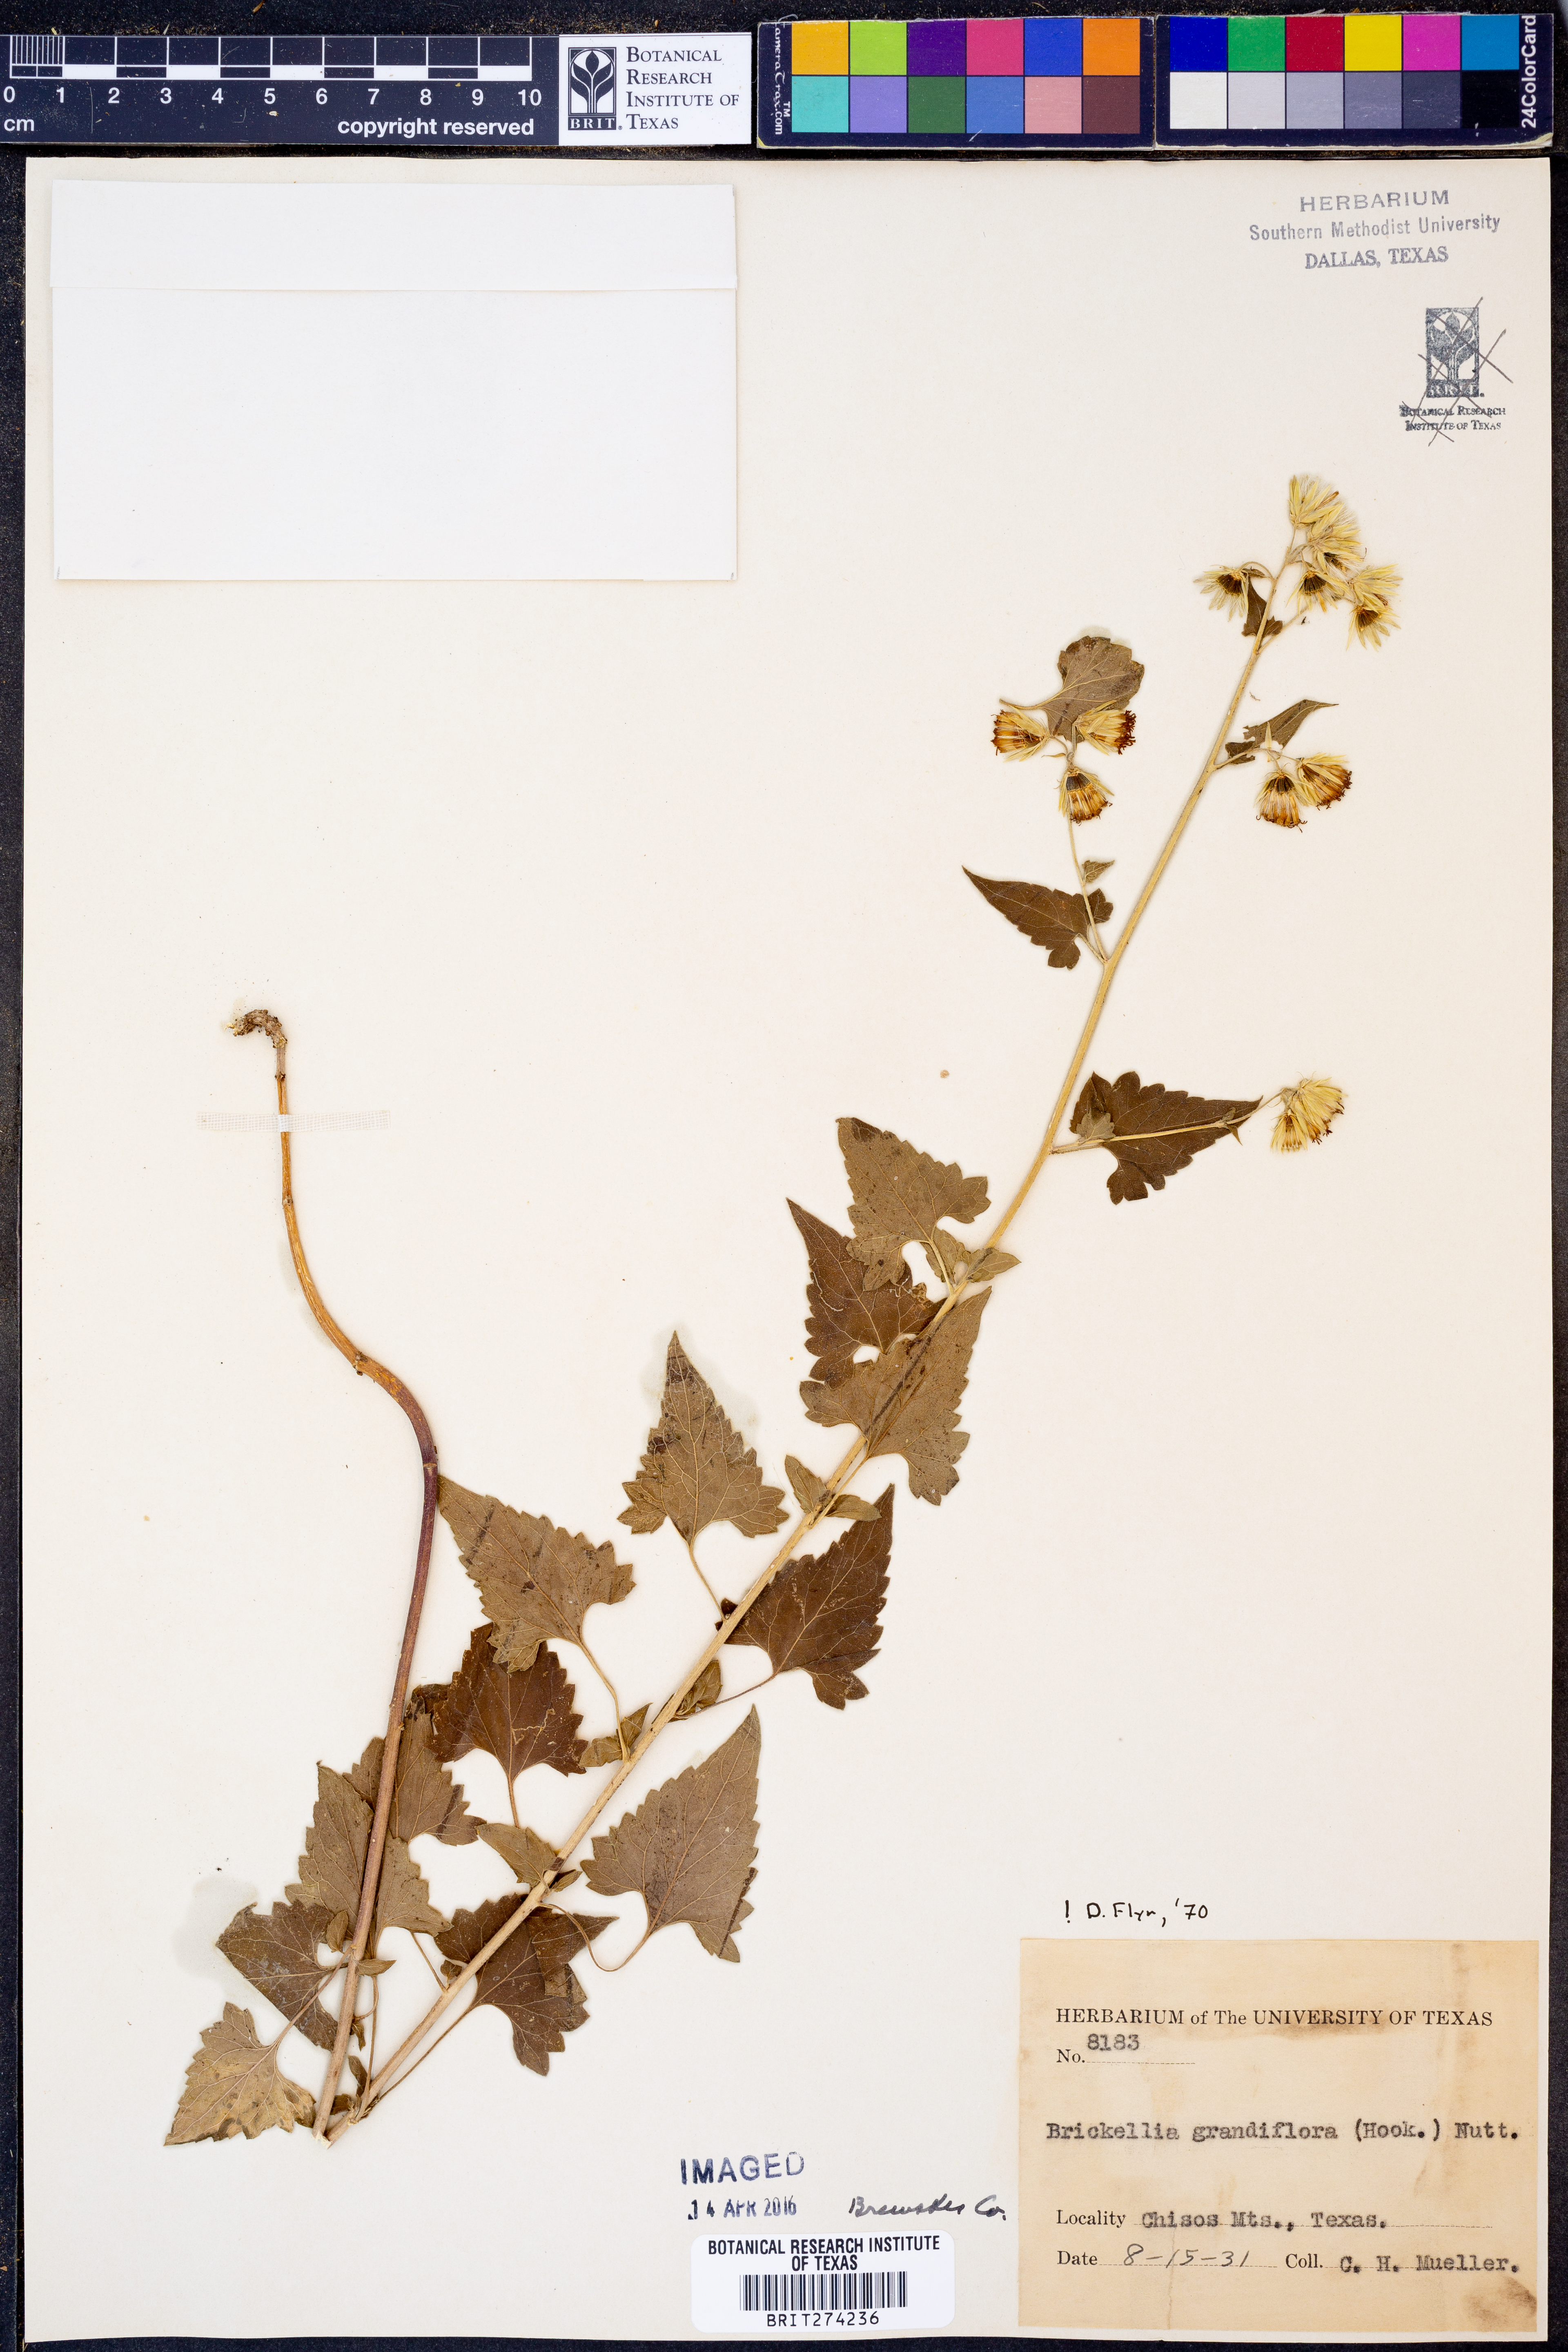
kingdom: Plantae
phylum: Tracheophyta
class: Magnoliopsida
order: Asterales
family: Asteraceae
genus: Brickellia
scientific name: Brickellia grandiflora
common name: Large-flowered brickellia
